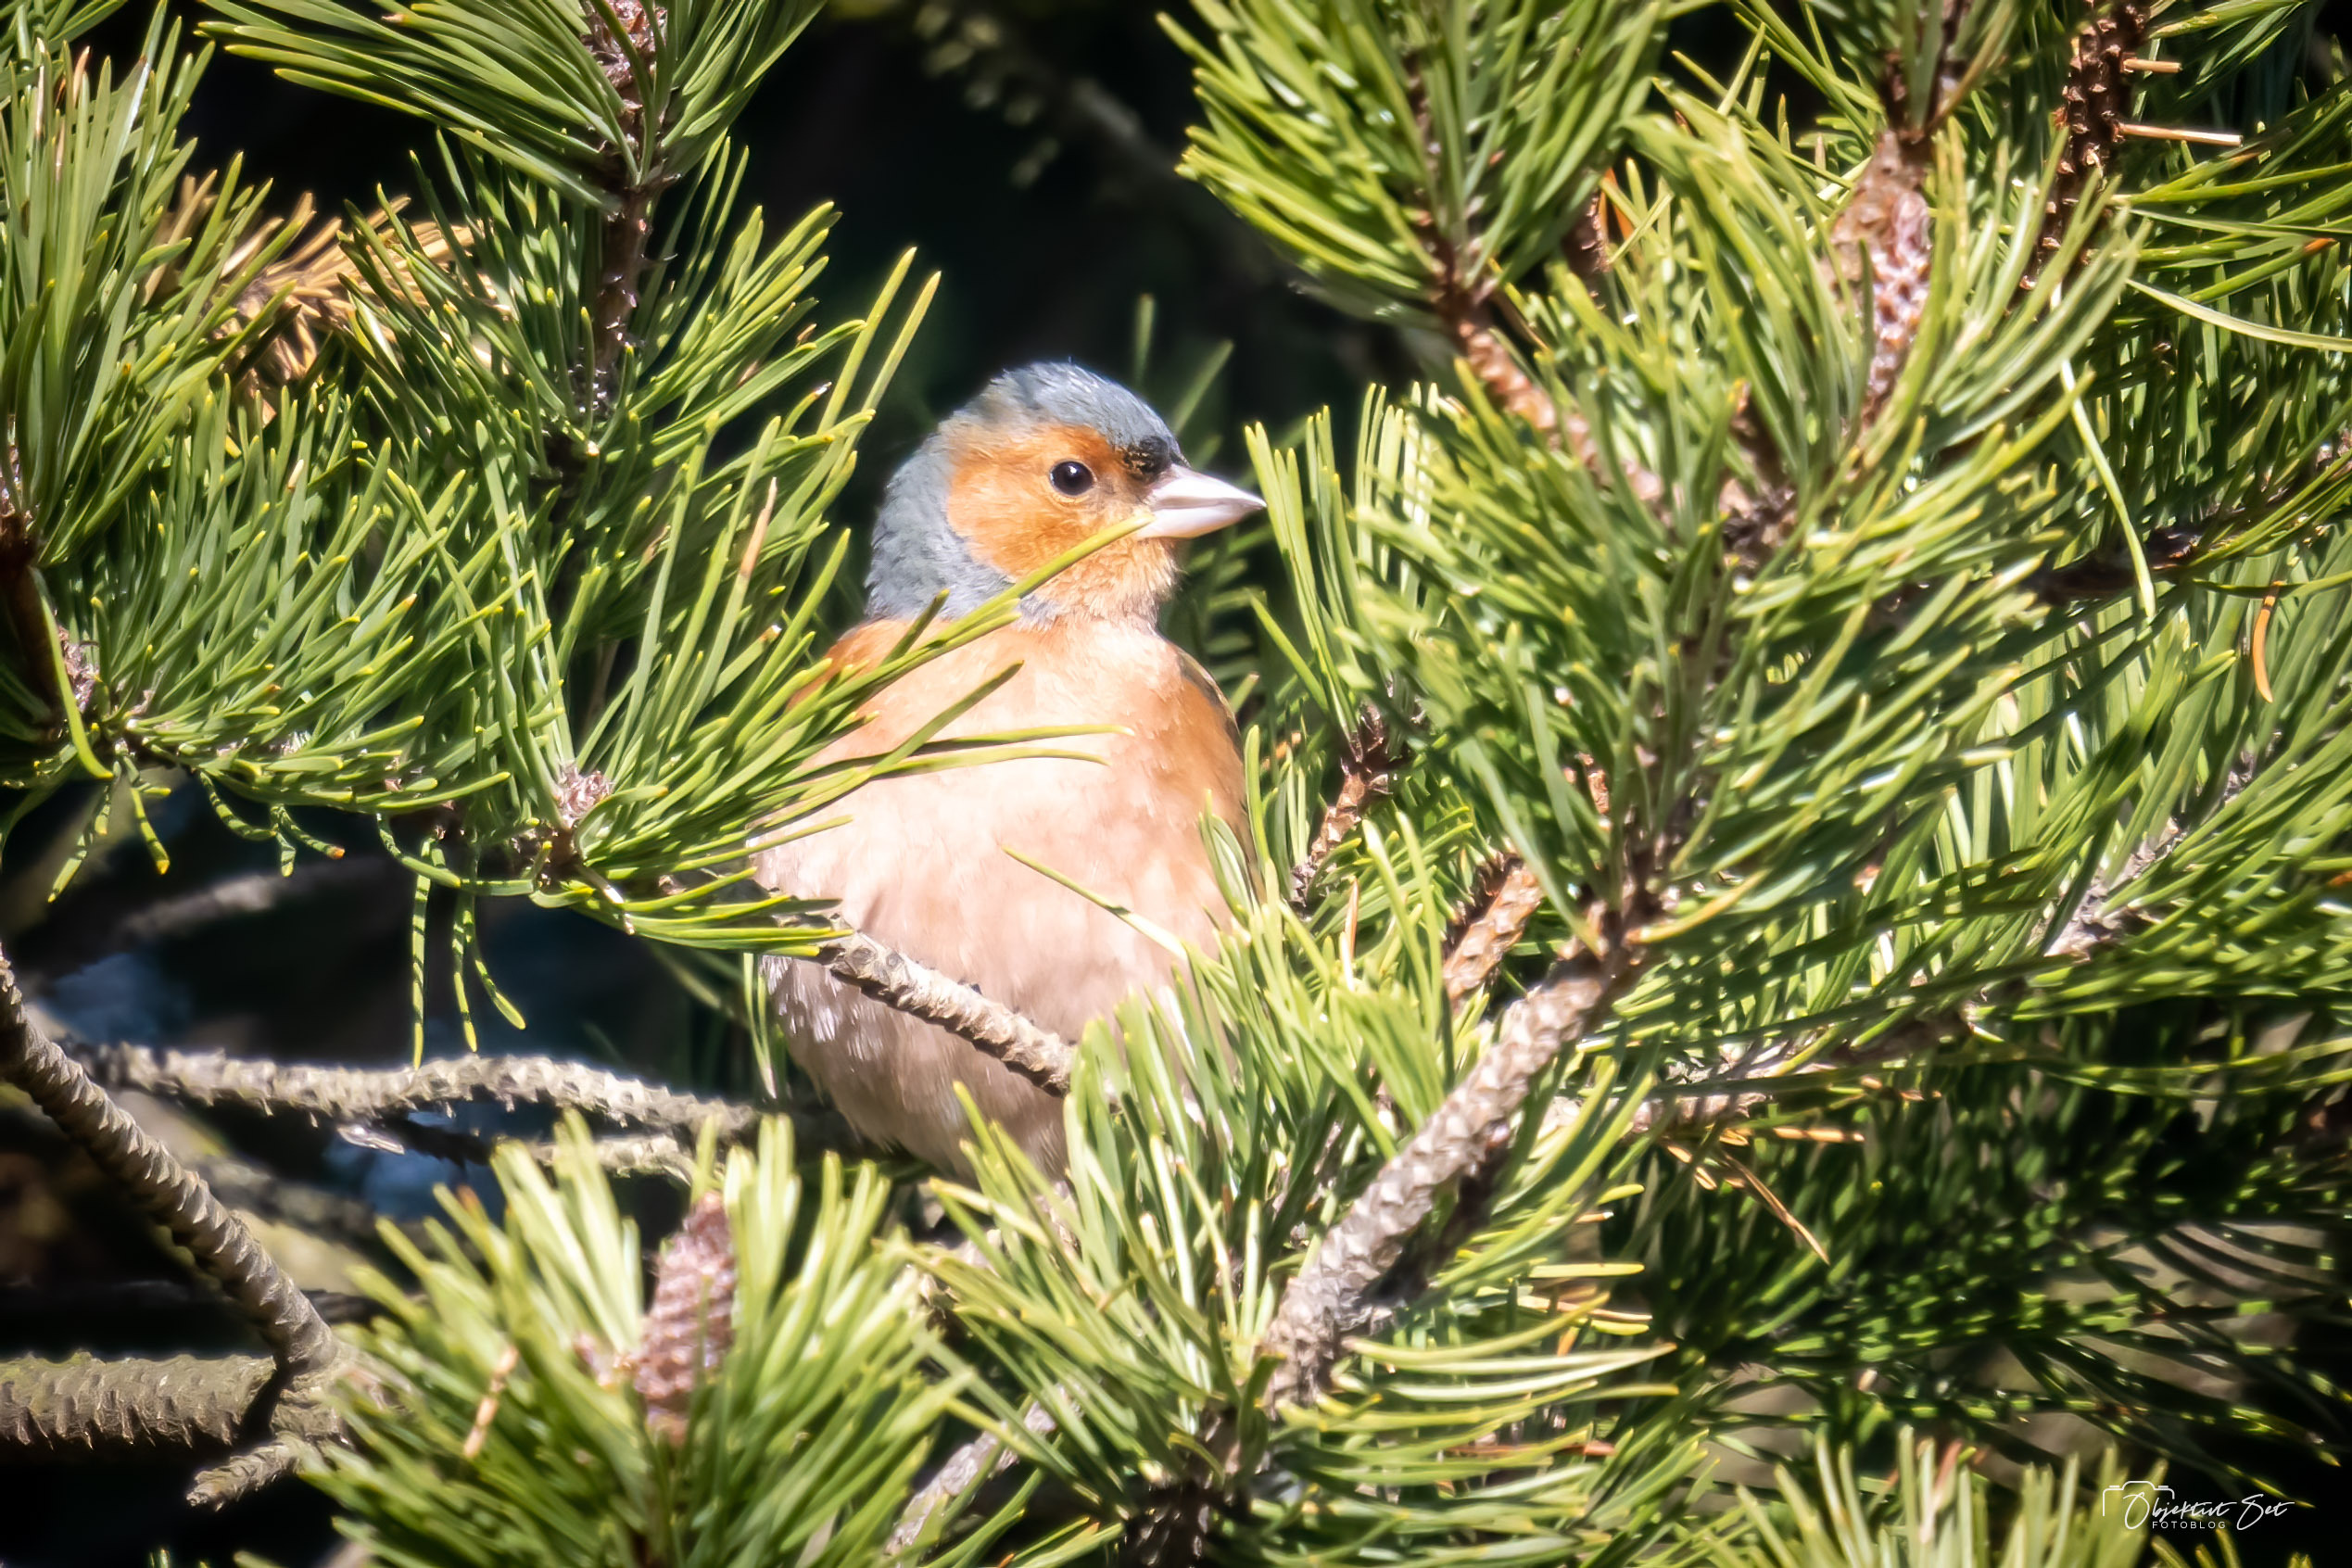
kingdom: Animalia
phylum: Chordata
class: Aves
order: Passeriformes
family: Fringillidae
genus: Fringilla
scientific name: Fringilla coelebs
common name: Bogfinke
